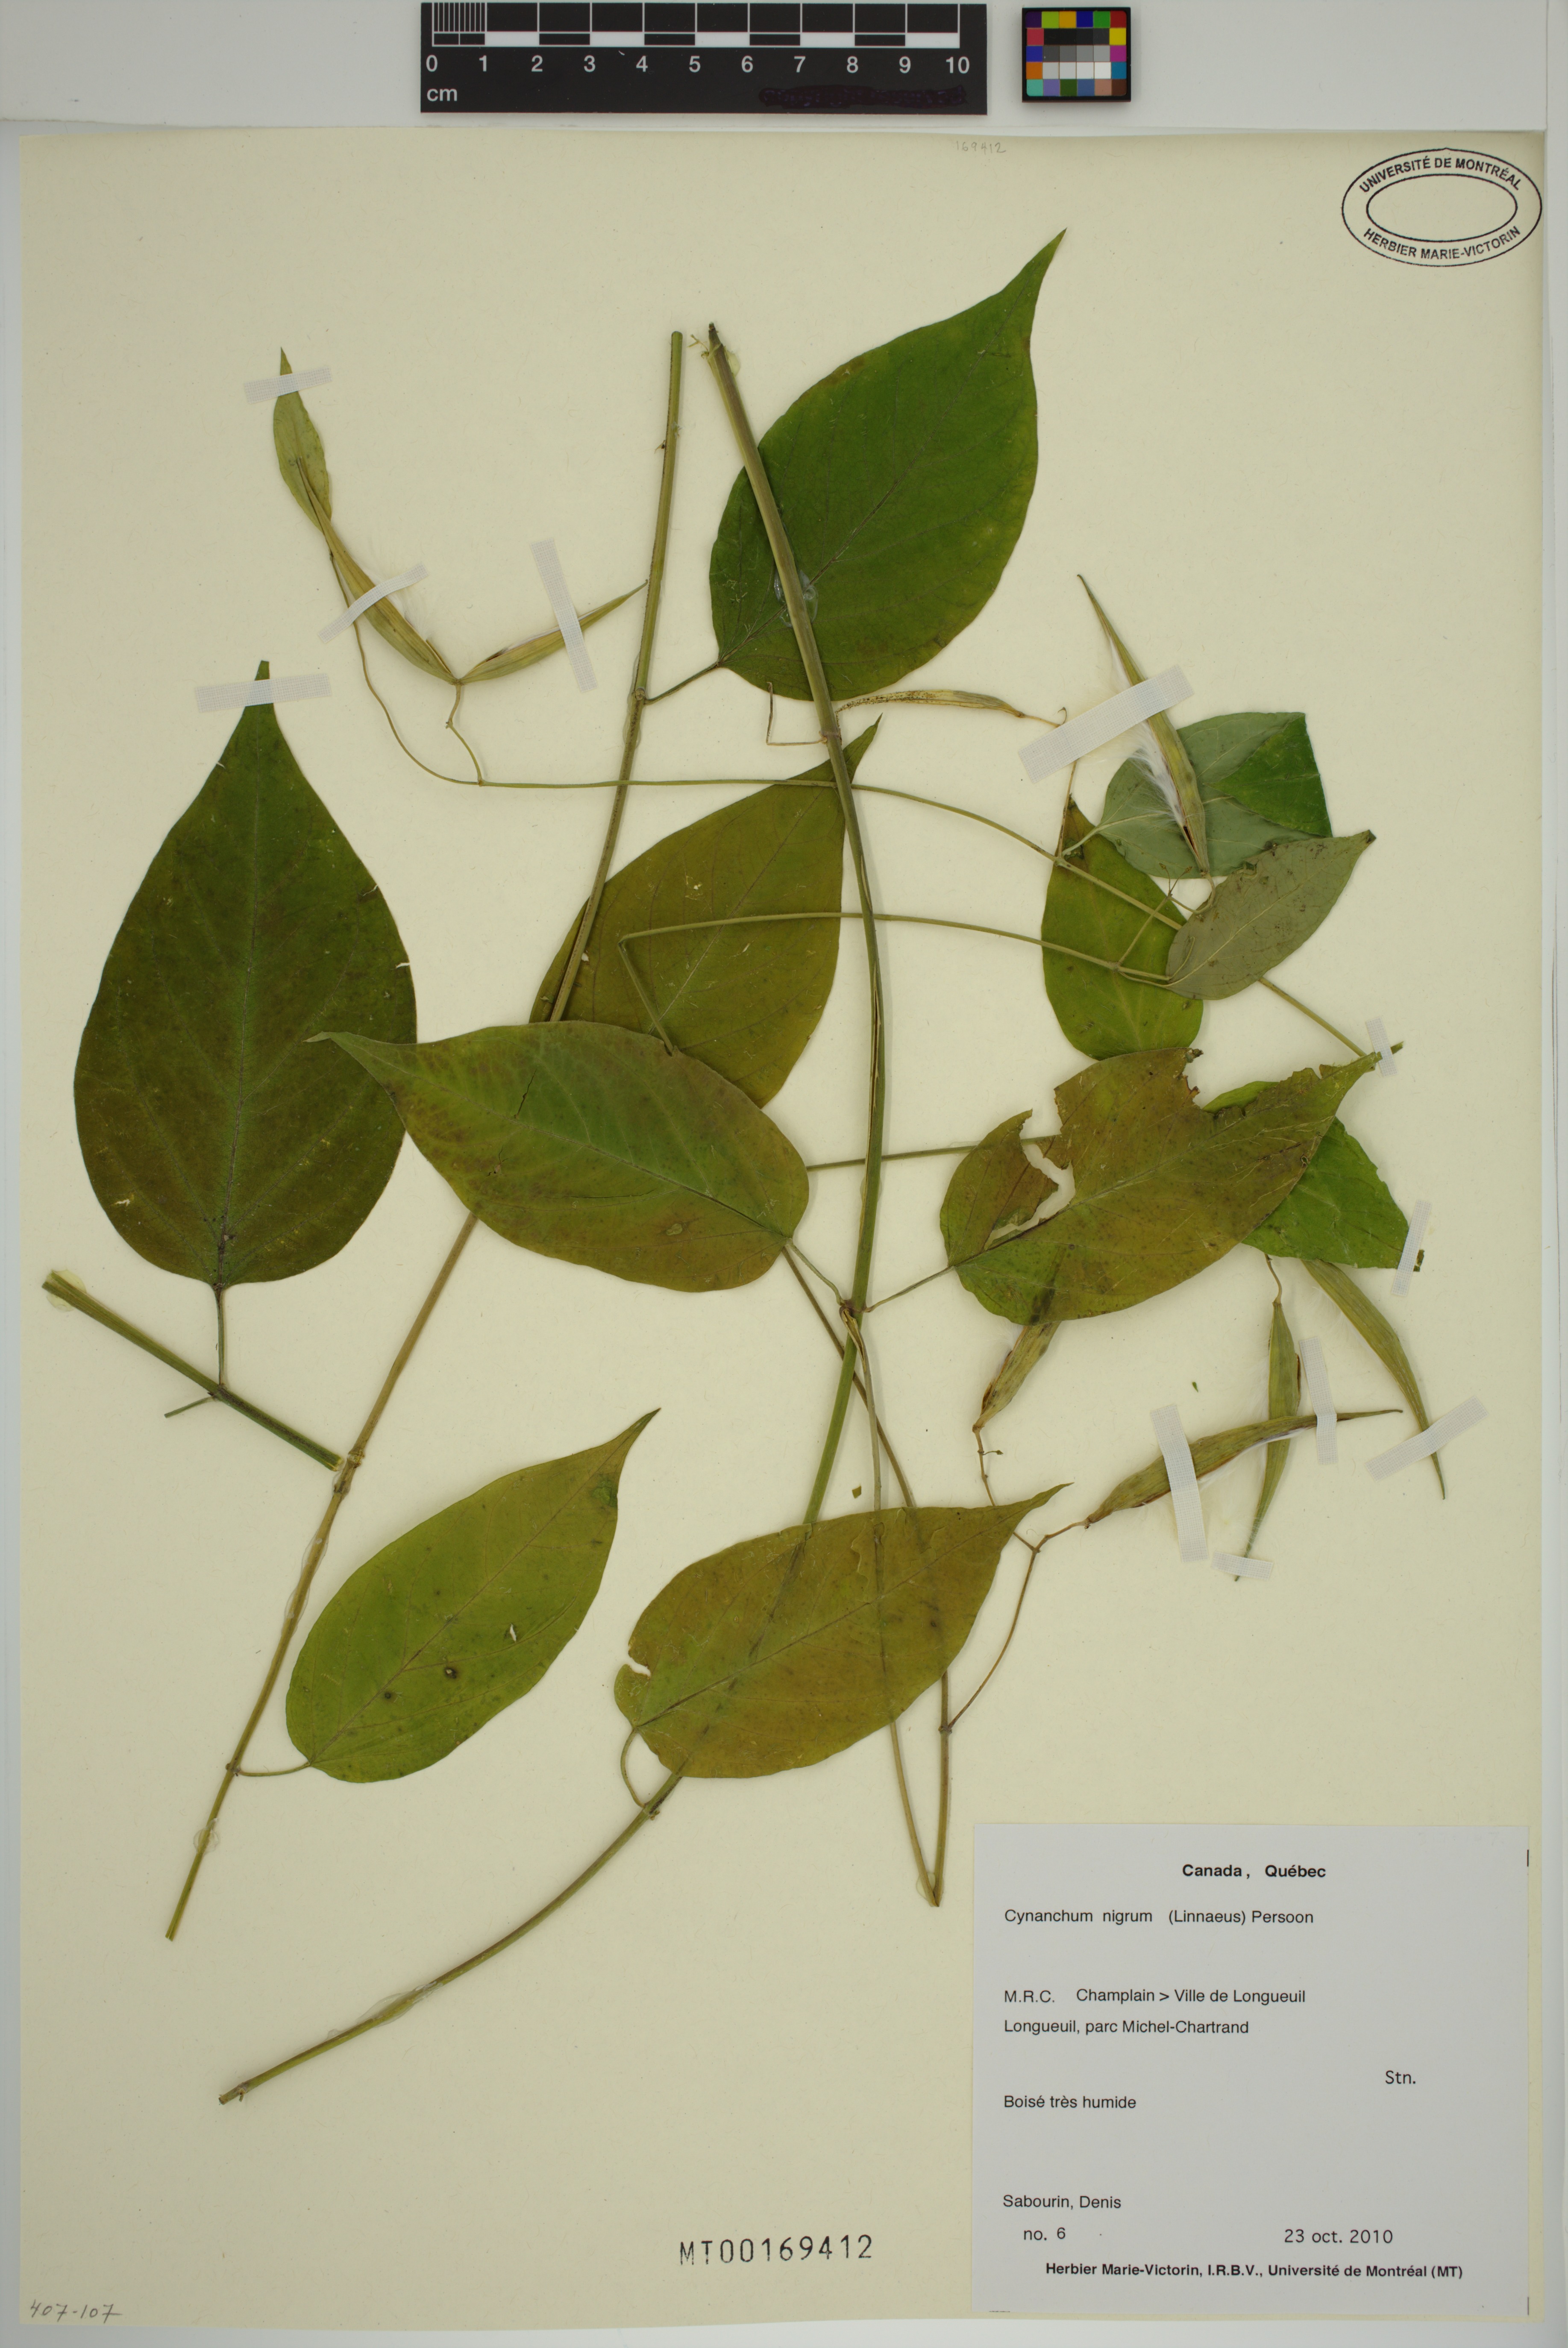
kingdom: Plantae
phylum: Tracheophyta
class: Magnoliopsida
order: Gentianales
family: Apocynaceae
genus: Vincetoxicum
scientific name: Vincetoxicum nigrum
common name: Black swallow-wort
